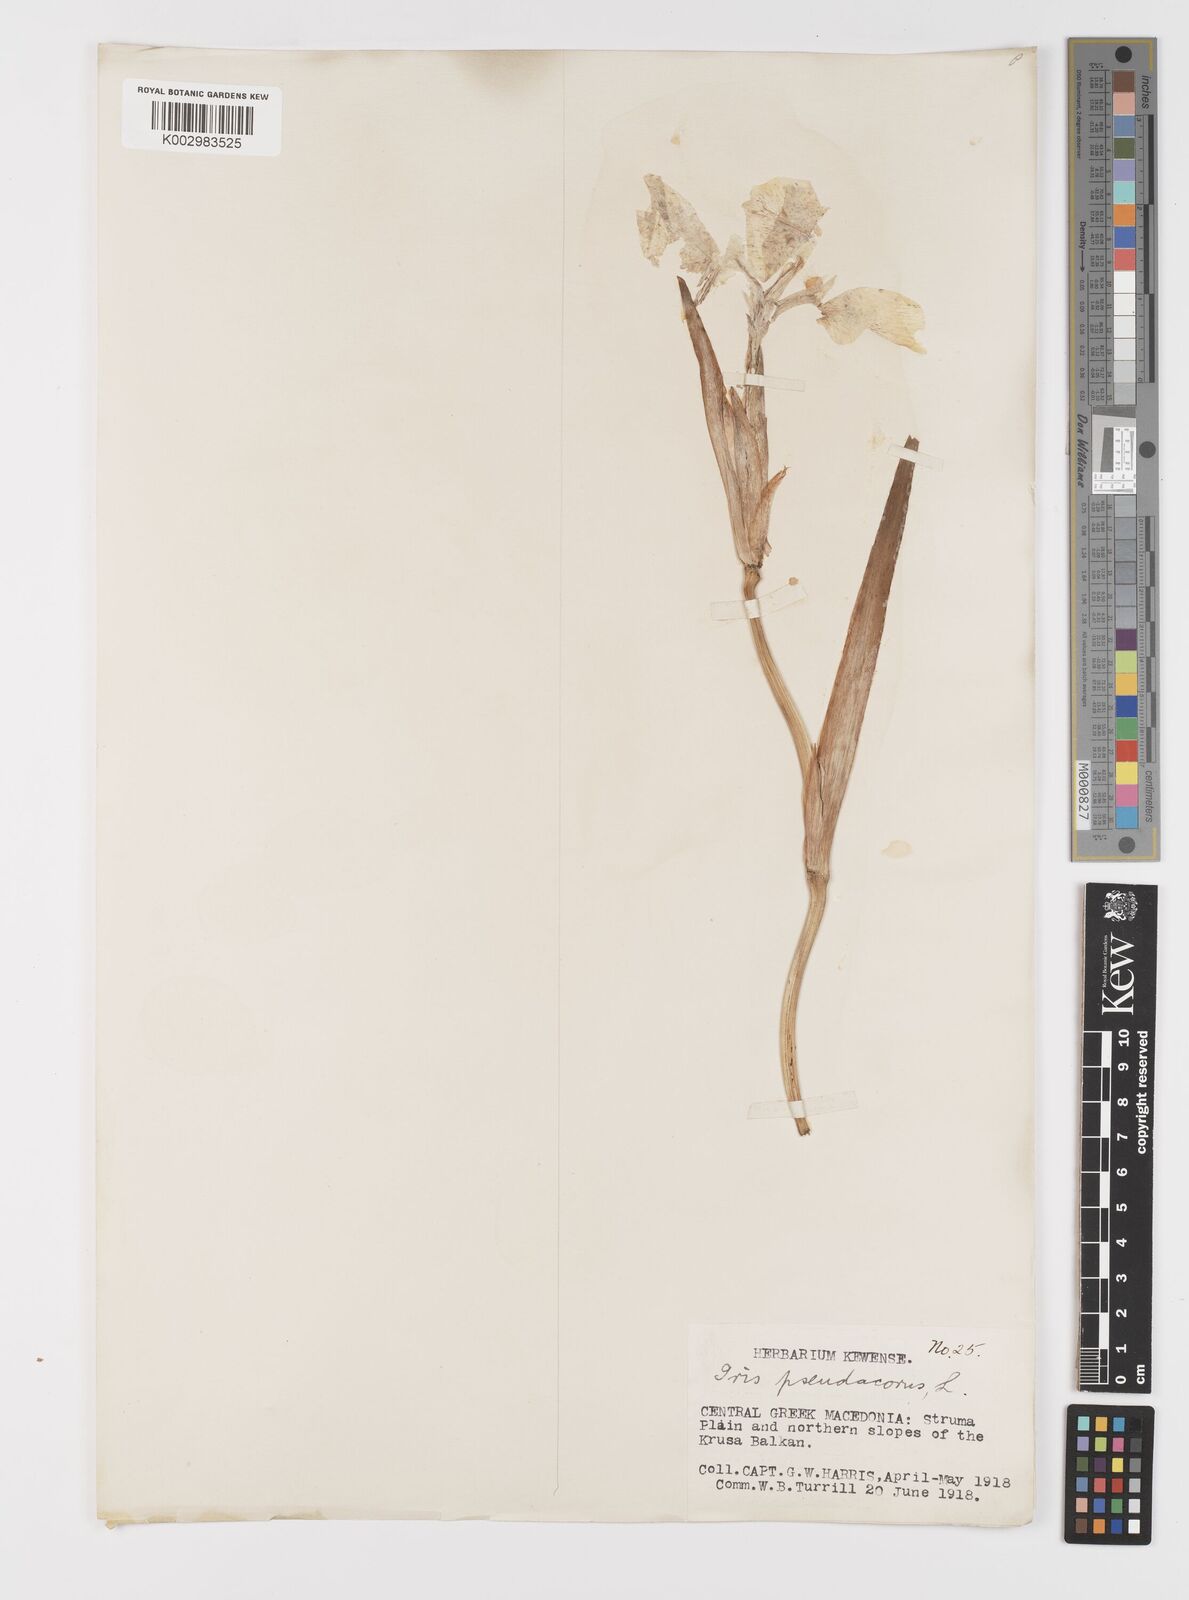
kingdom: Plantae
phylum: Tracheophyta
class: Liliopsida
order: Asparagales
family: Iridaceae
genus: Iris
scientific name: Iris pseudacorus
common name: Yellow flag
